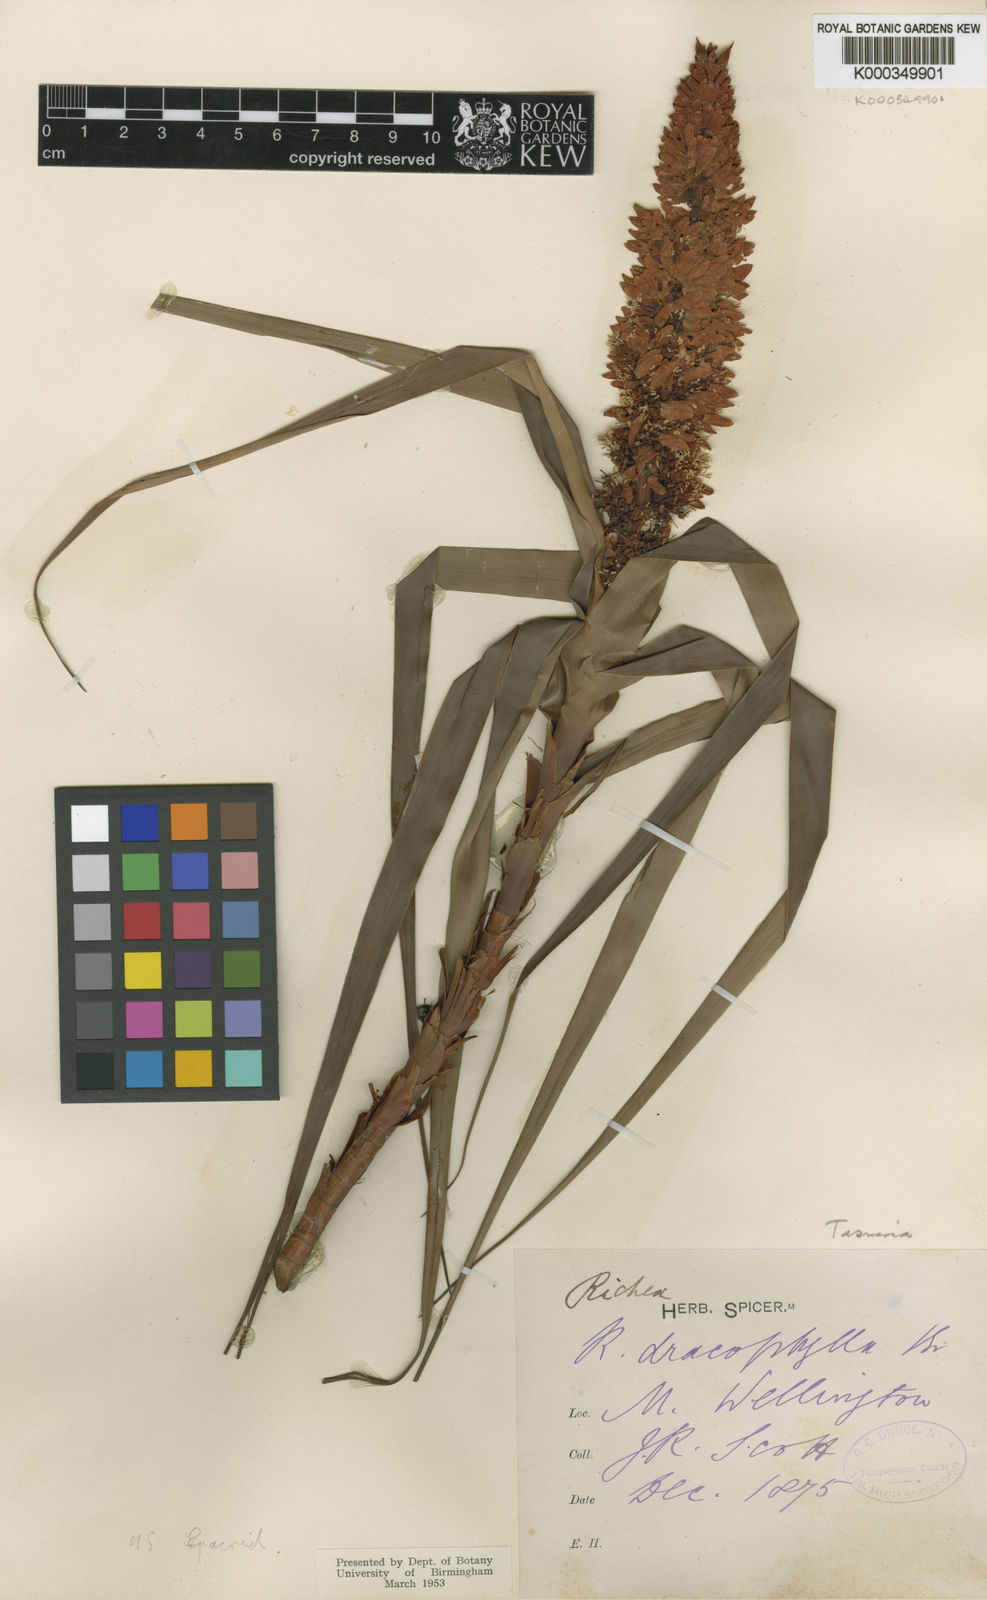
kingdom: Plantae
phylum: Tracheophyta
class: Magnoliopsida
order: Ericales
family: Ericaceae
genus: Dracophyllum
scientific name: Dracophyllum desgrazii
